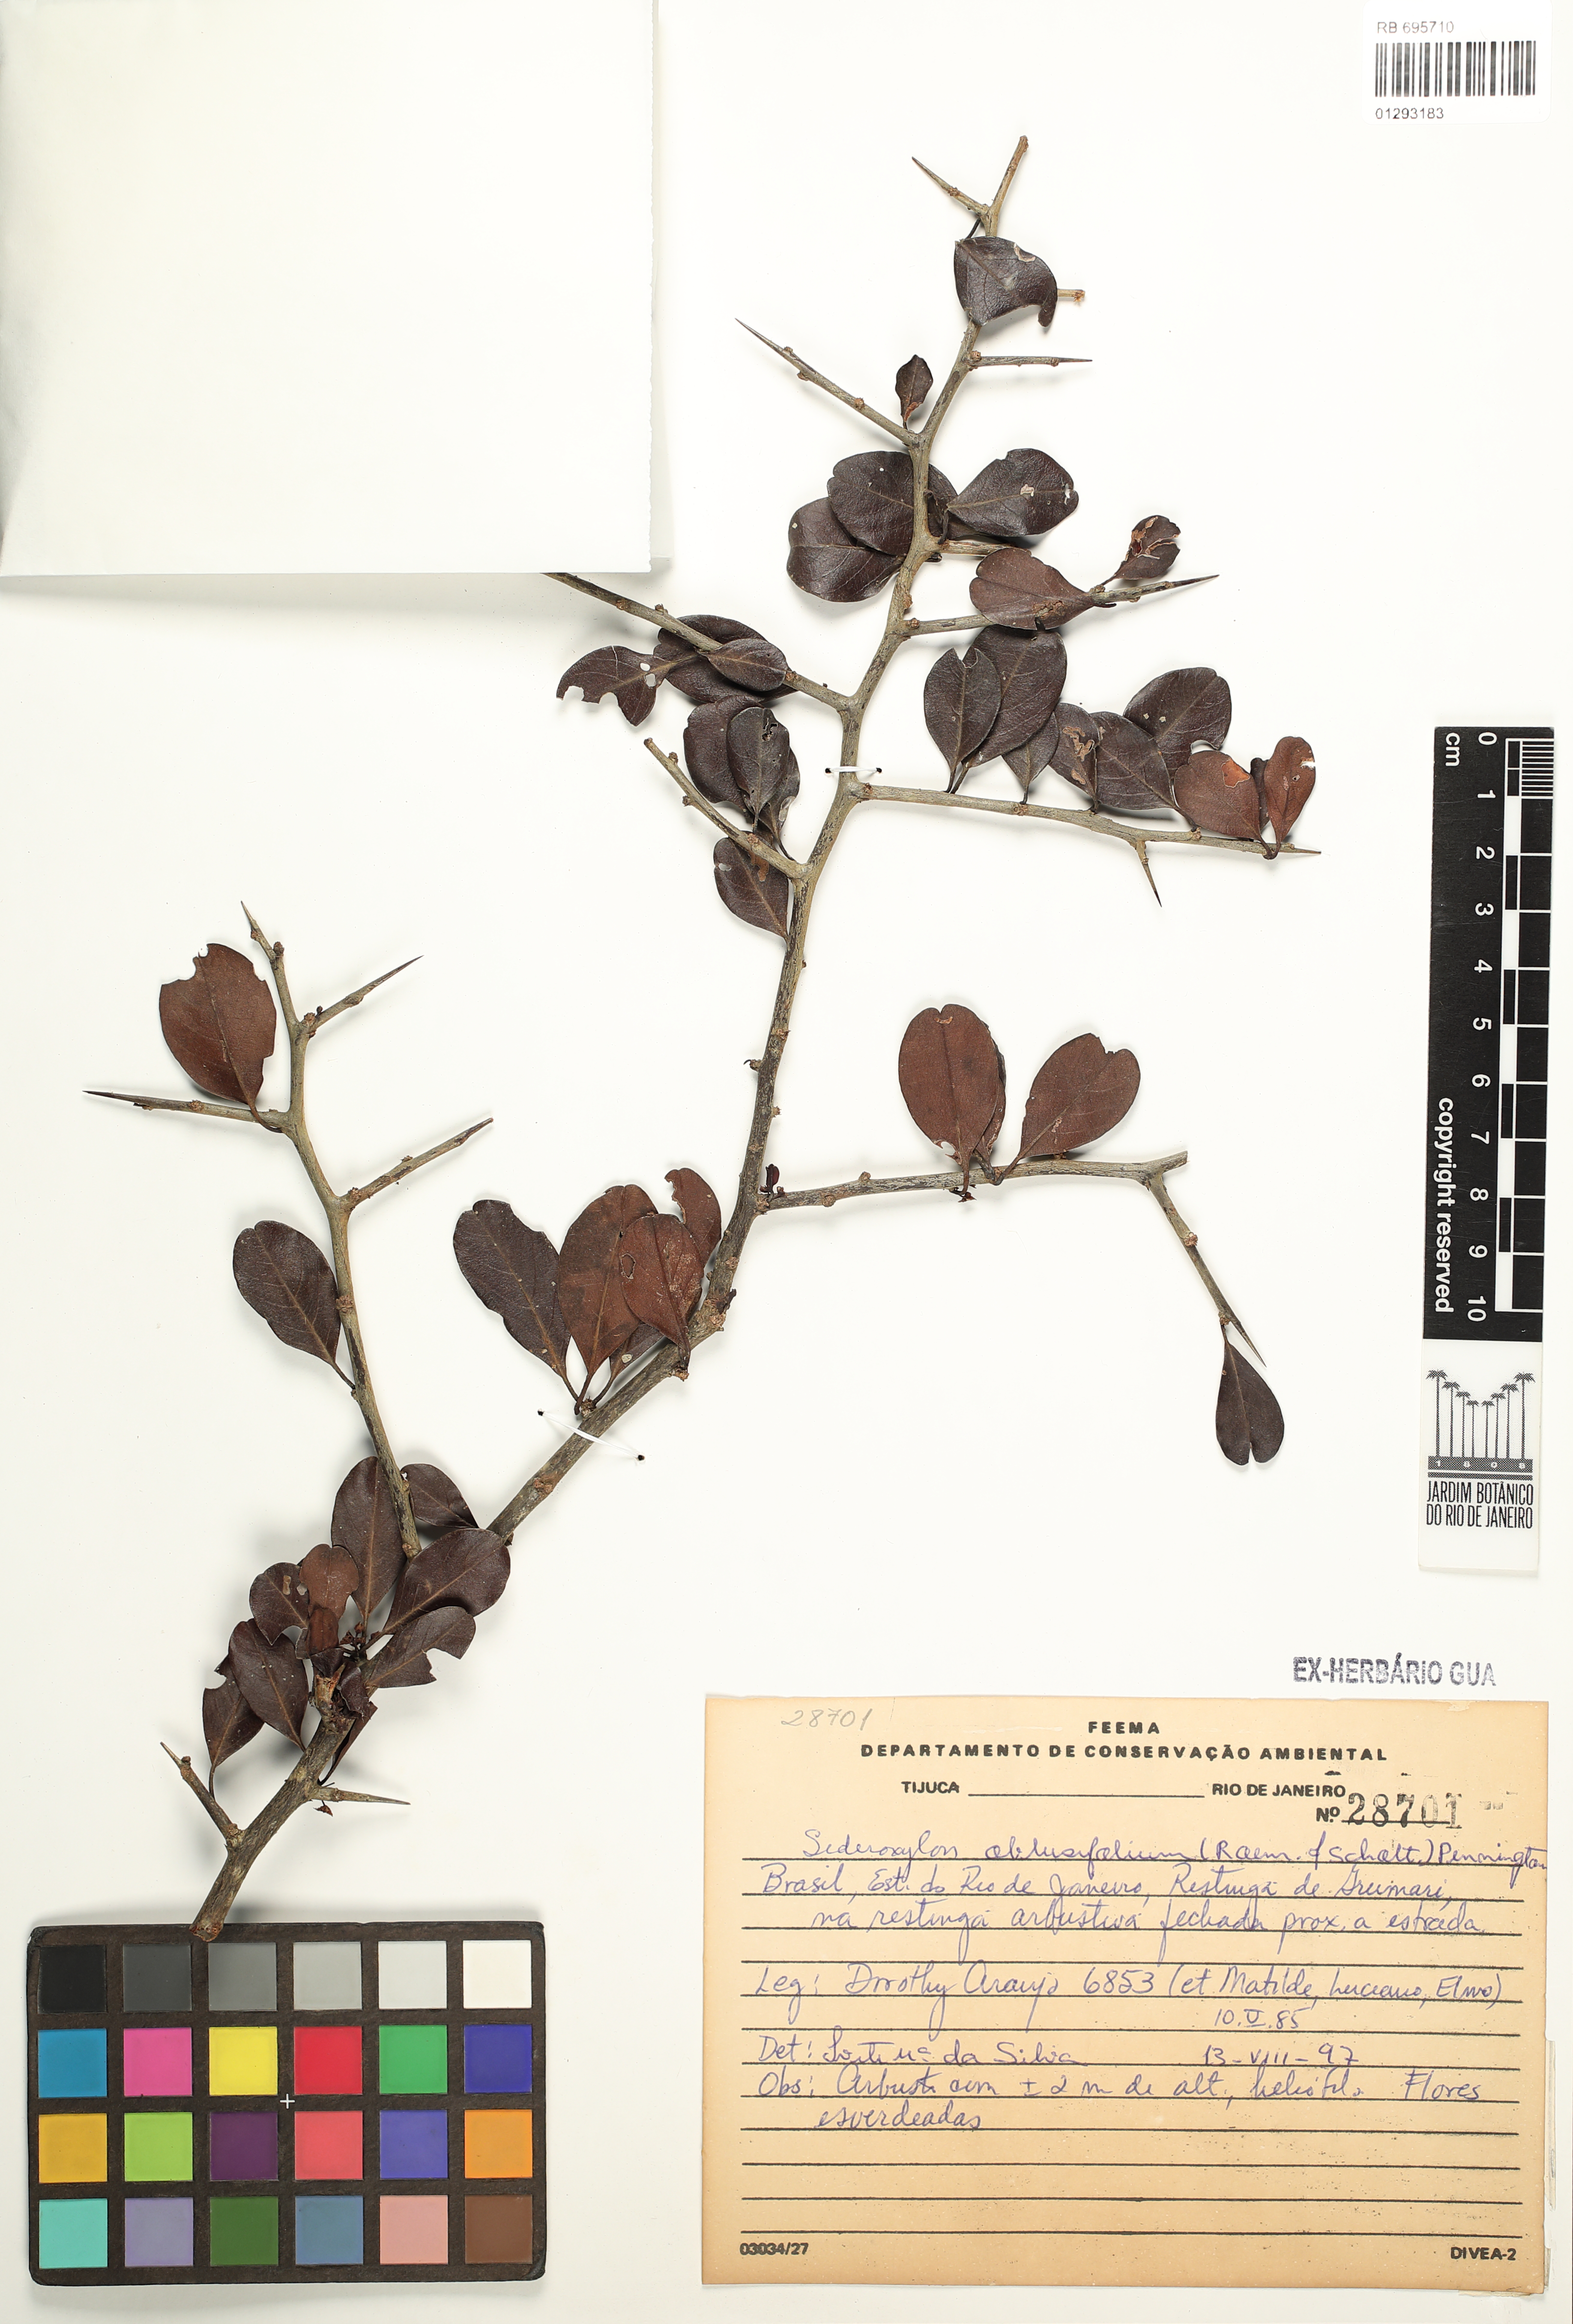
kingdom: Plantae
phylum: Tracheophyta
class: Magnoliopsida
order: Ericales
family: Sapotaceae
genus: Sideroxylon
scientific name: Sideroxylon obtusifolium
